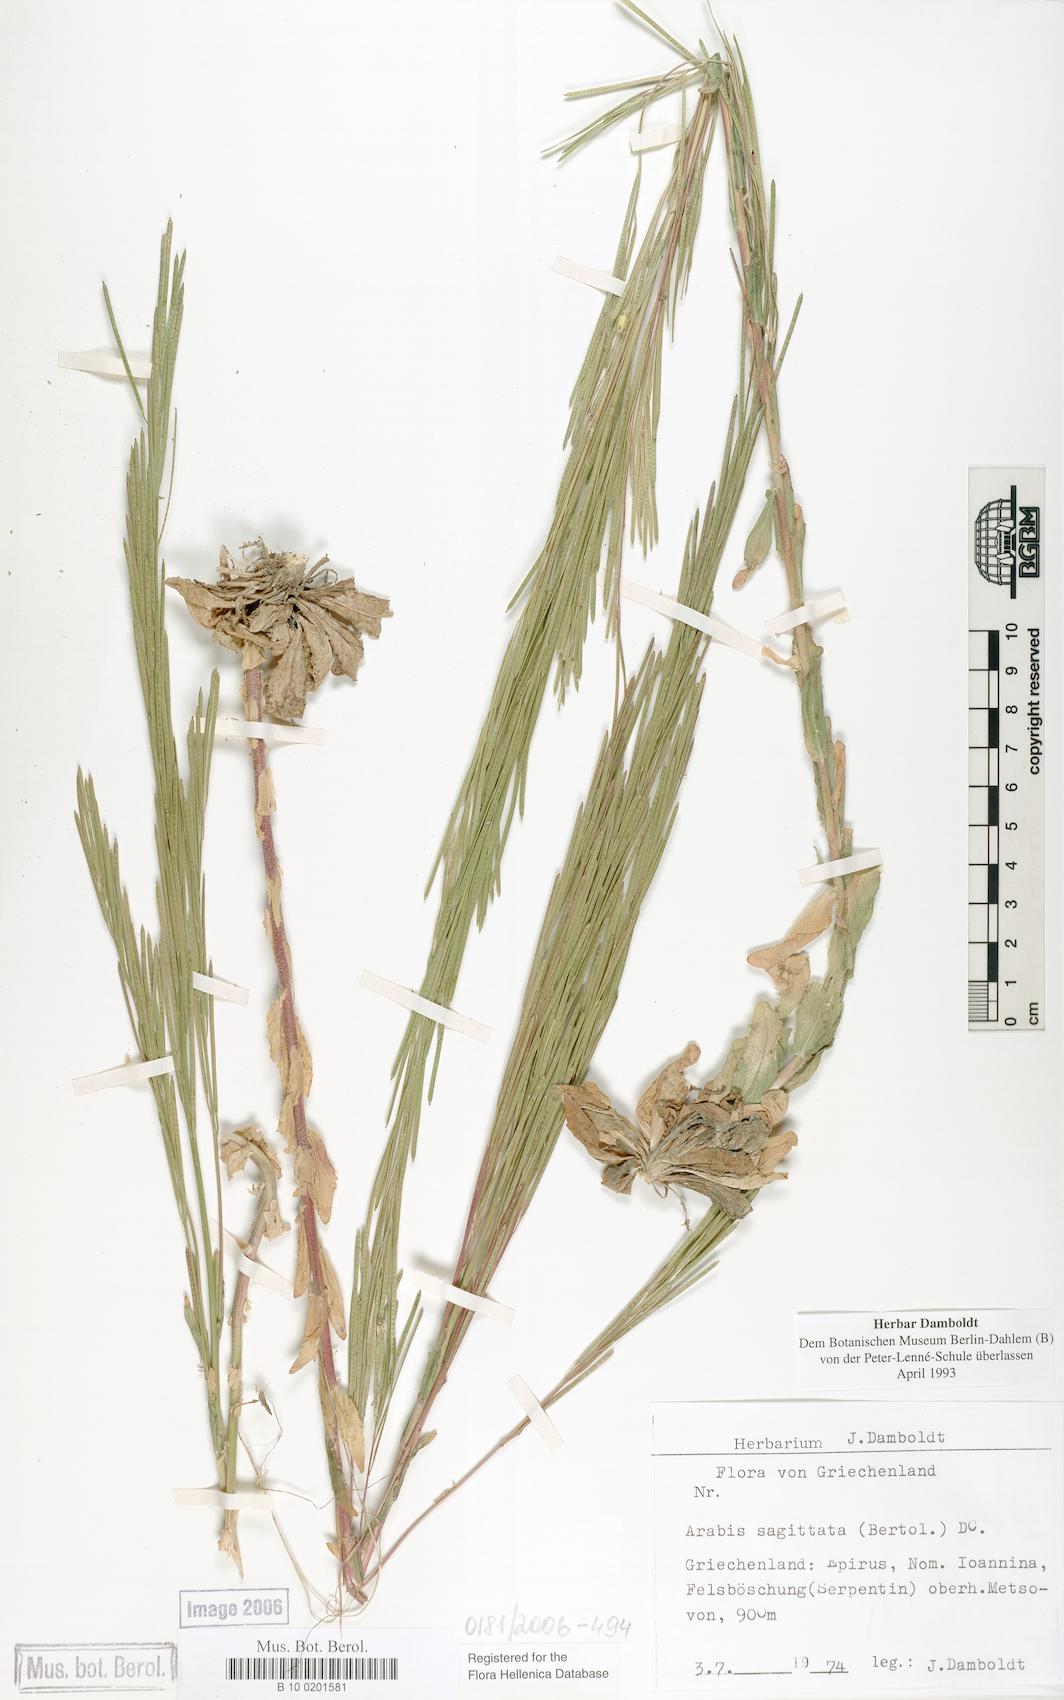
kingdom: Plantae
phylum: Tracheophyta
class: Magnoliopsida
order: Brassicales
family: Brassicaceae
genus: Arabis
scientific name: Arabis sagittata
